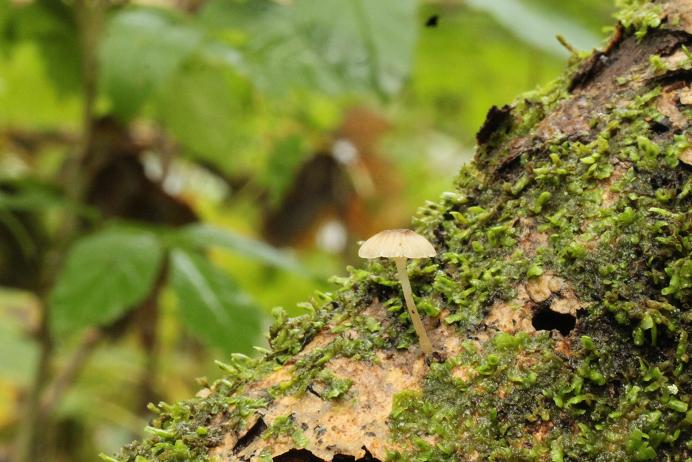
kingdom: Fungi
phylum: Basidiomycota
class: Agaricomycetes
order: Agaricales
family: Porotheleaceae
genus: Phloeomana
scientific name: Phloeomana speirea
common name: kvist-huesvamp
